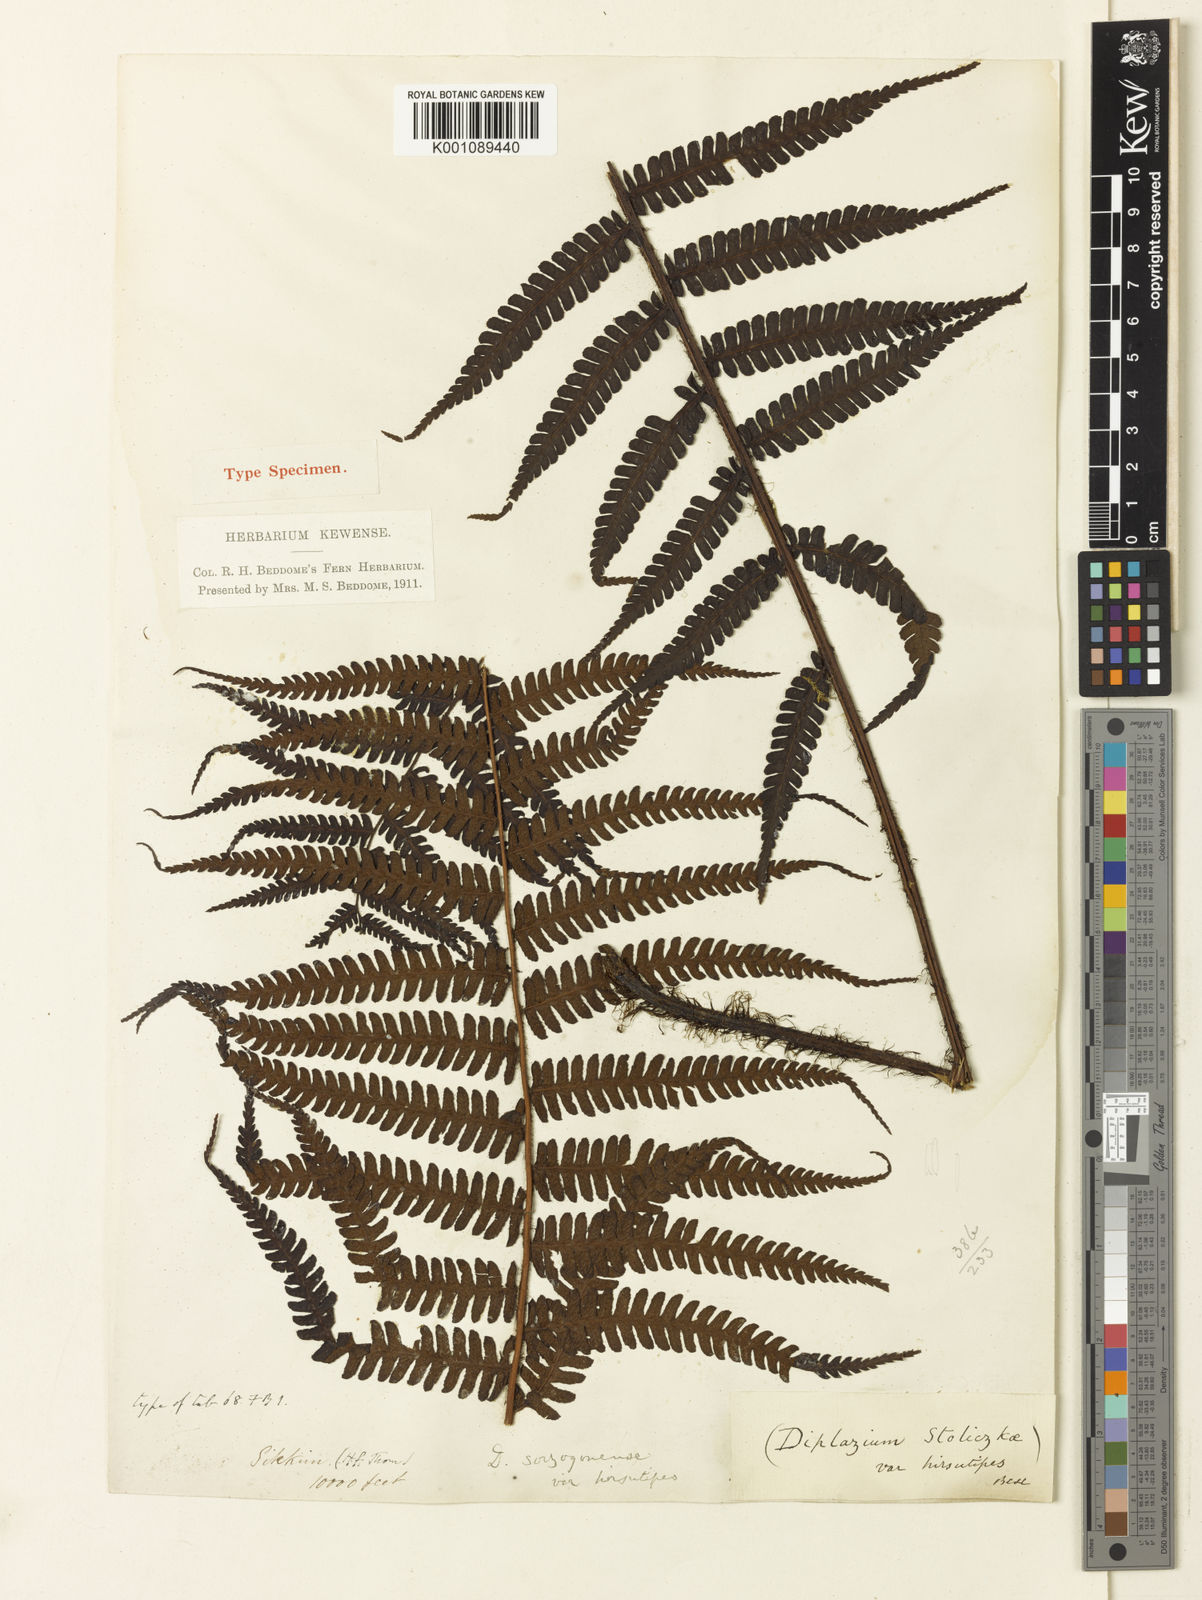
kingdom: Plantae
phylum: Tracheophyta
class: Polypodiopsida
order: Polypodiales
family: Athyriaceae
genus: Diplazium
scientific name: Diplazium stoliczkae
